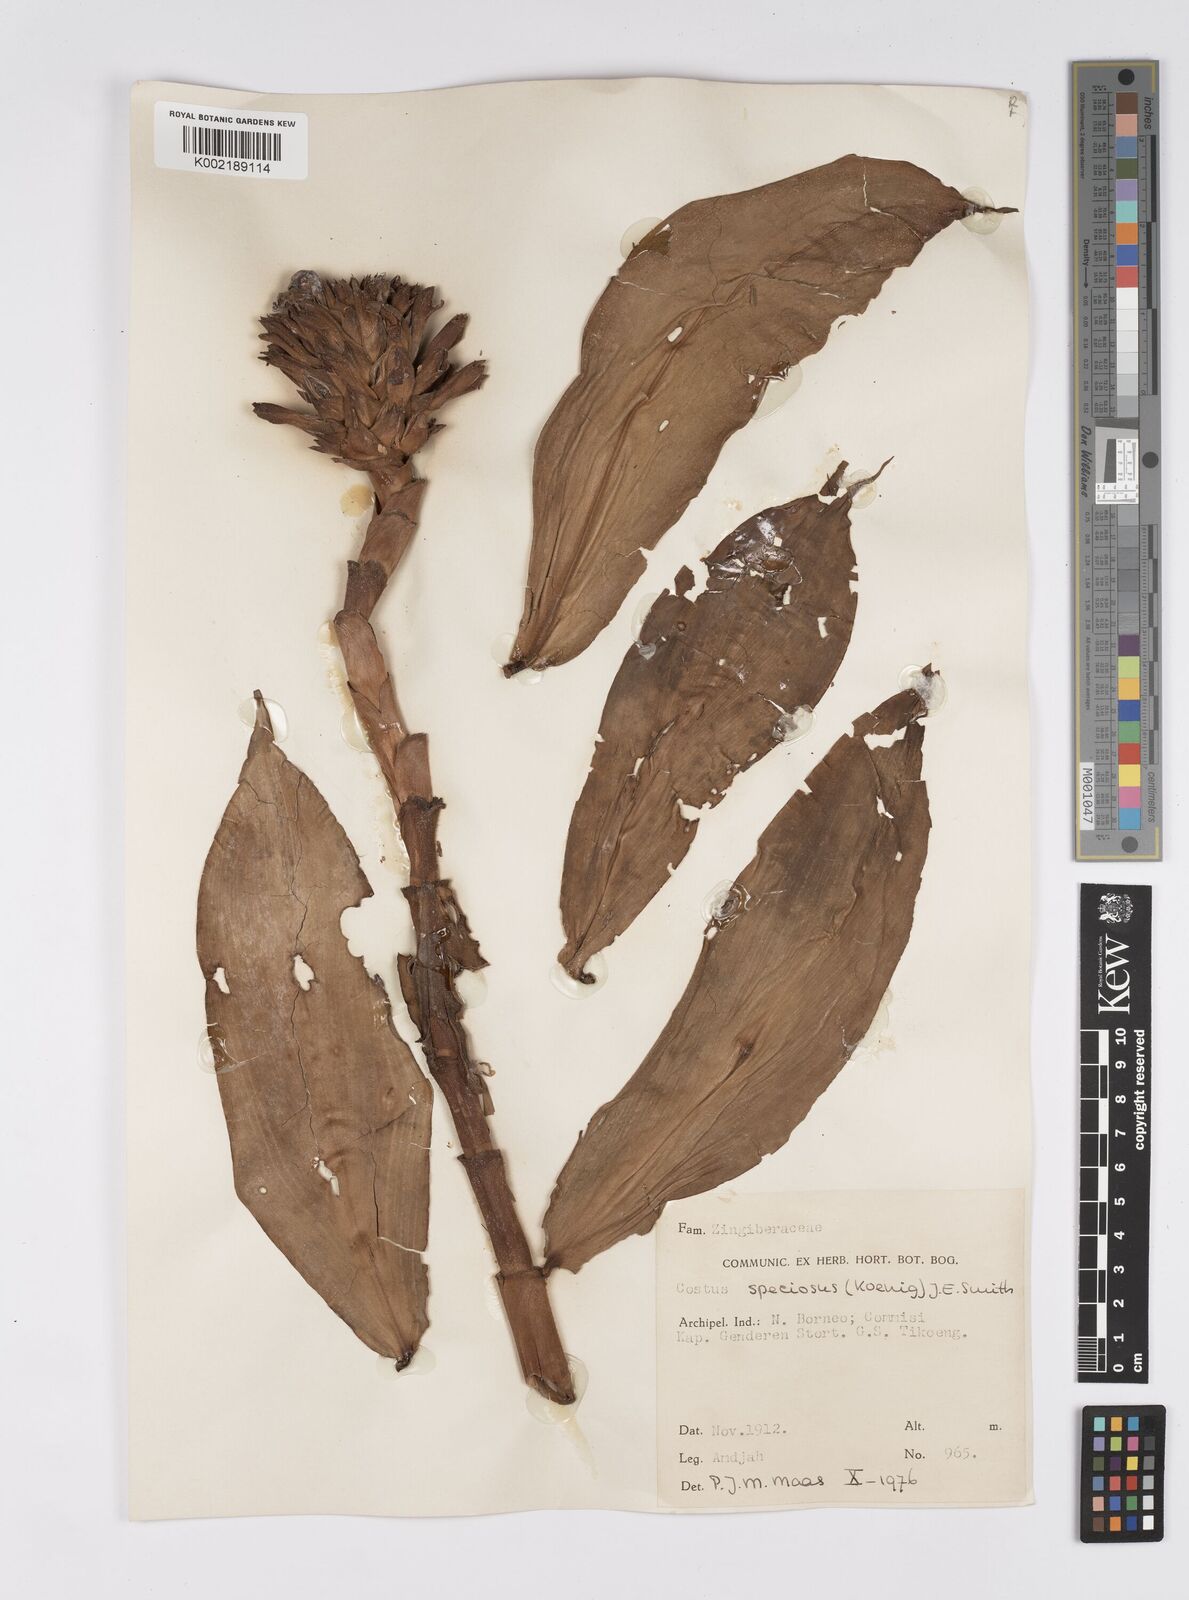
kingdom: Plantae
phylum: Tracheophyta
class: Liliopsida
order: Zingiberales
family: Costaceae
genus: Hellenia
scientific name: Hellenia speciosa
